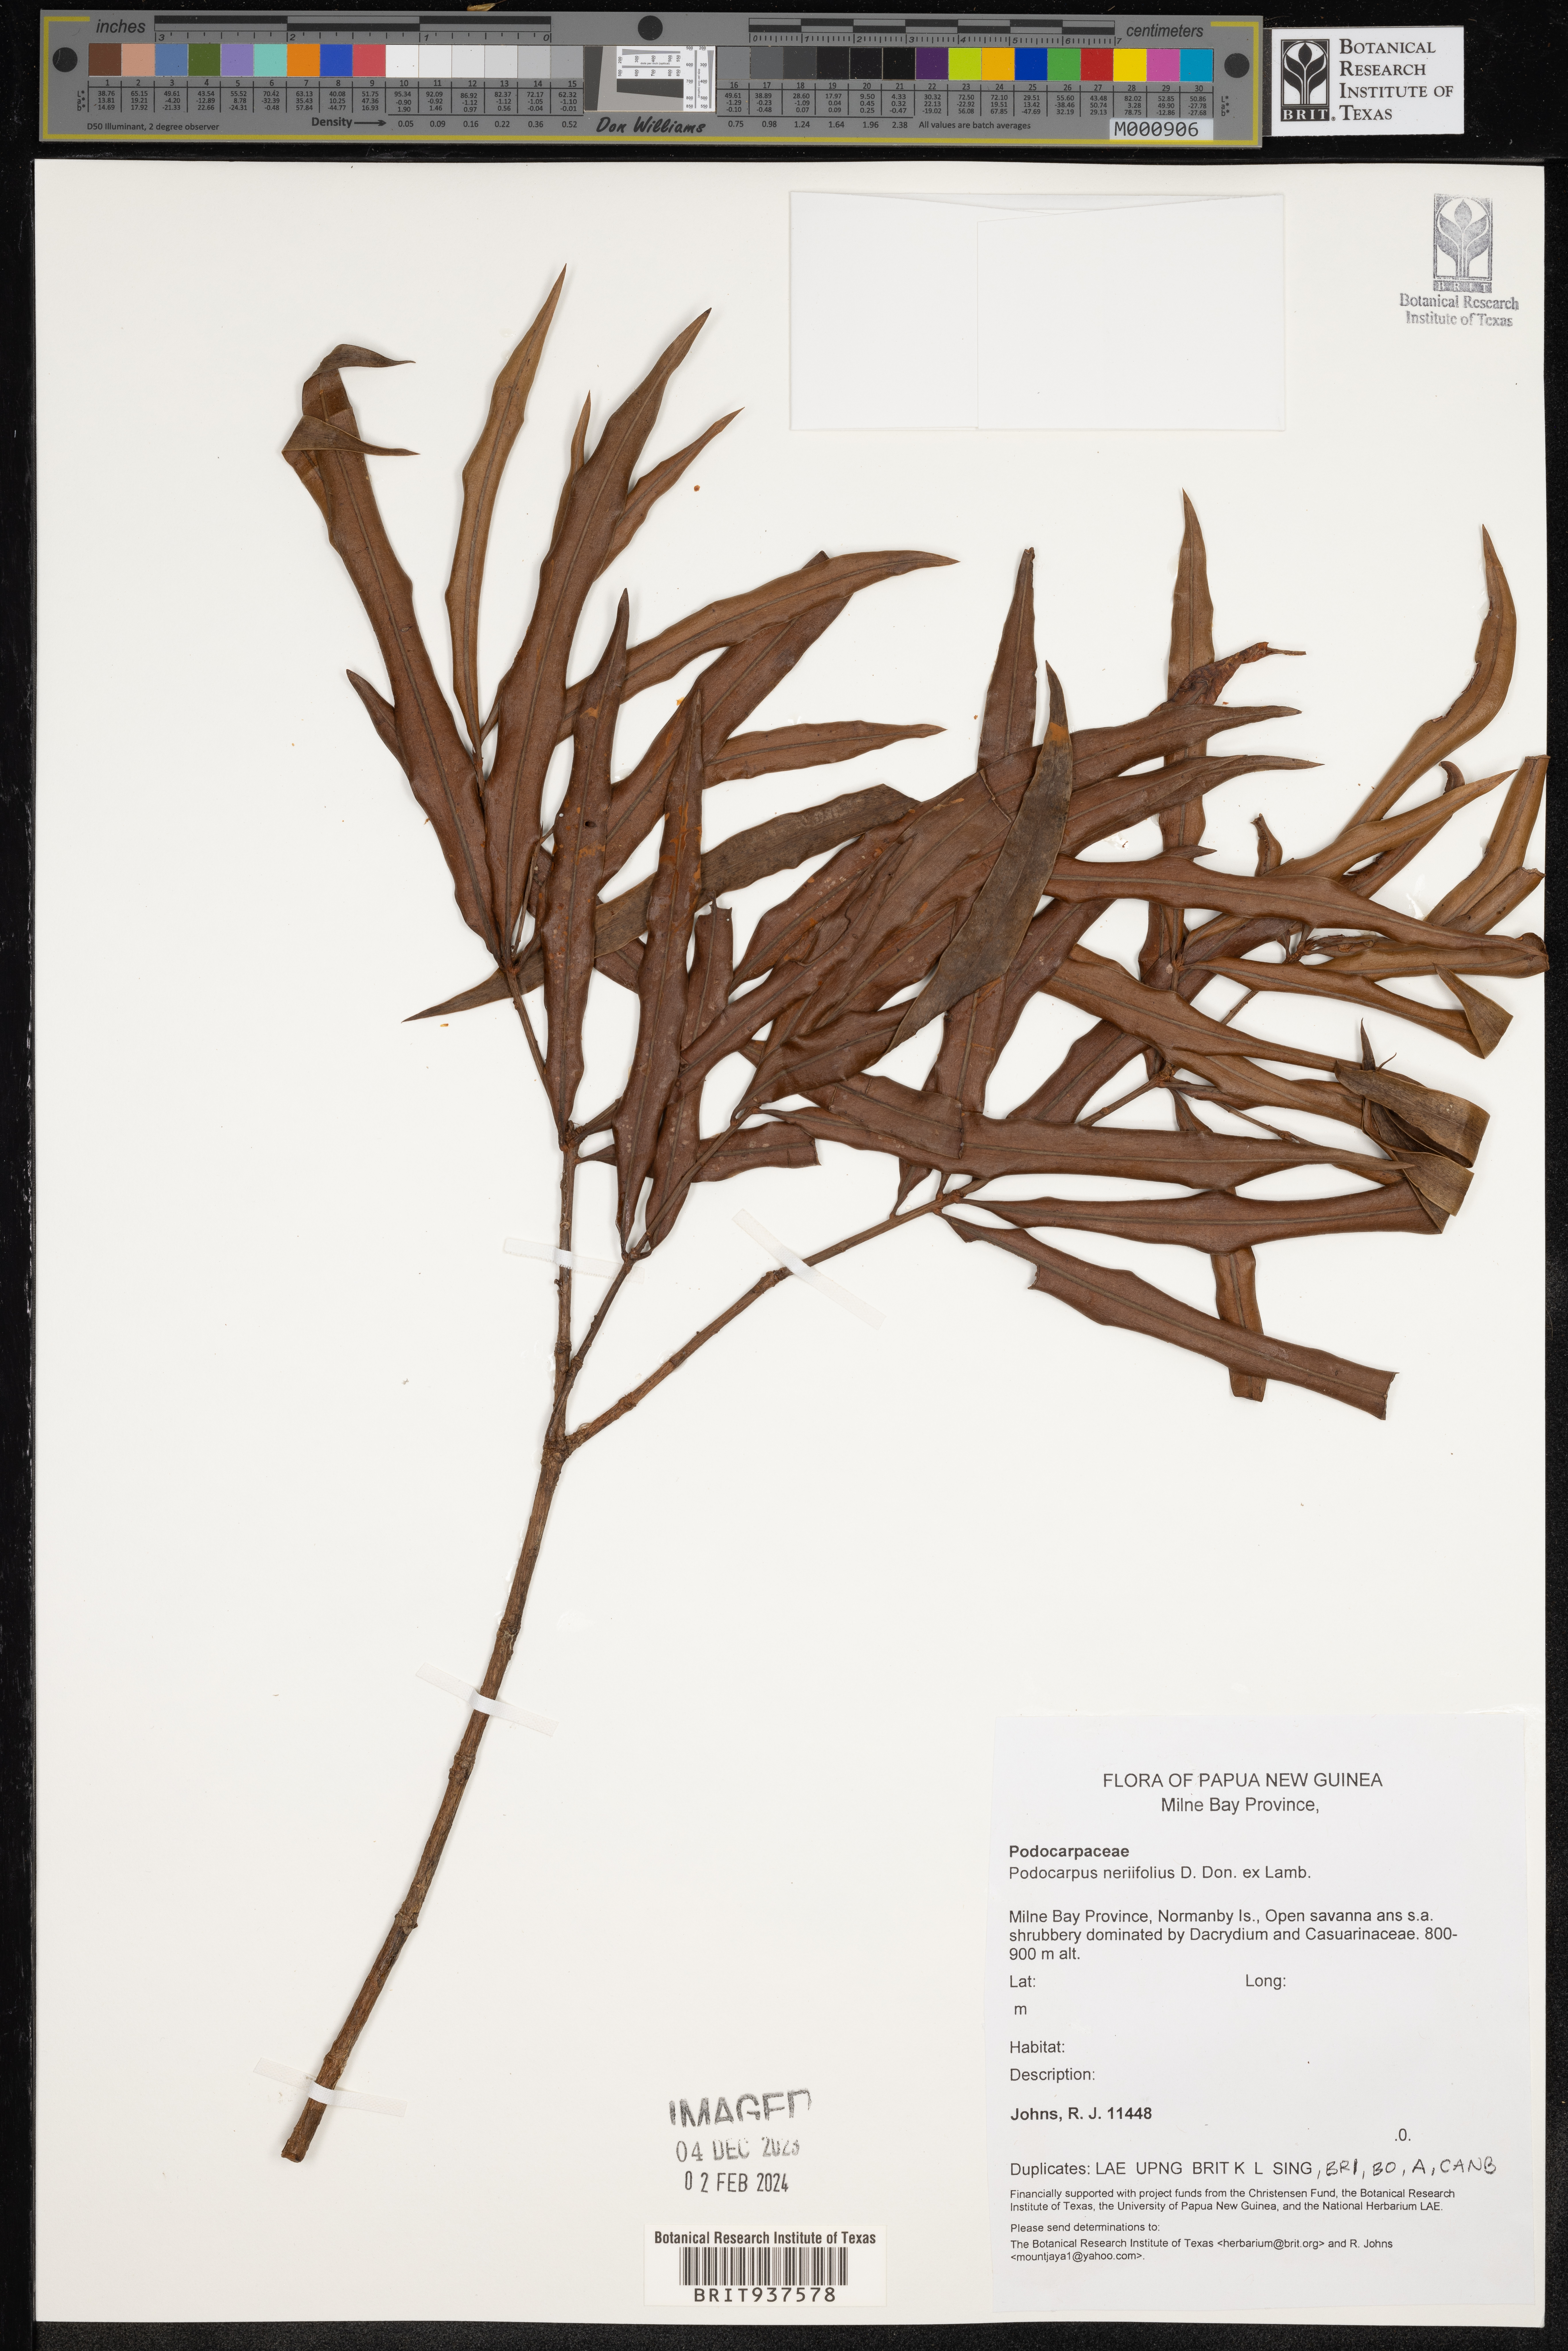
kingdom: Plantae
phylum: Tracheophyta
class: Pinopsida
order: Pinales
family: Podocarpaceae
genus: Podocarpus
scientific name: Podocarpus
